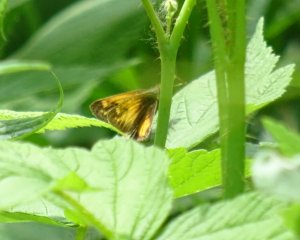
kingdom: Animalia
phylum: Arthropoda
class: Insecta
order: Lepidoptera
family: Hesperiidae
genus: Lon
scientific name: Lon hobomok
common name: Hobomok Skipper
